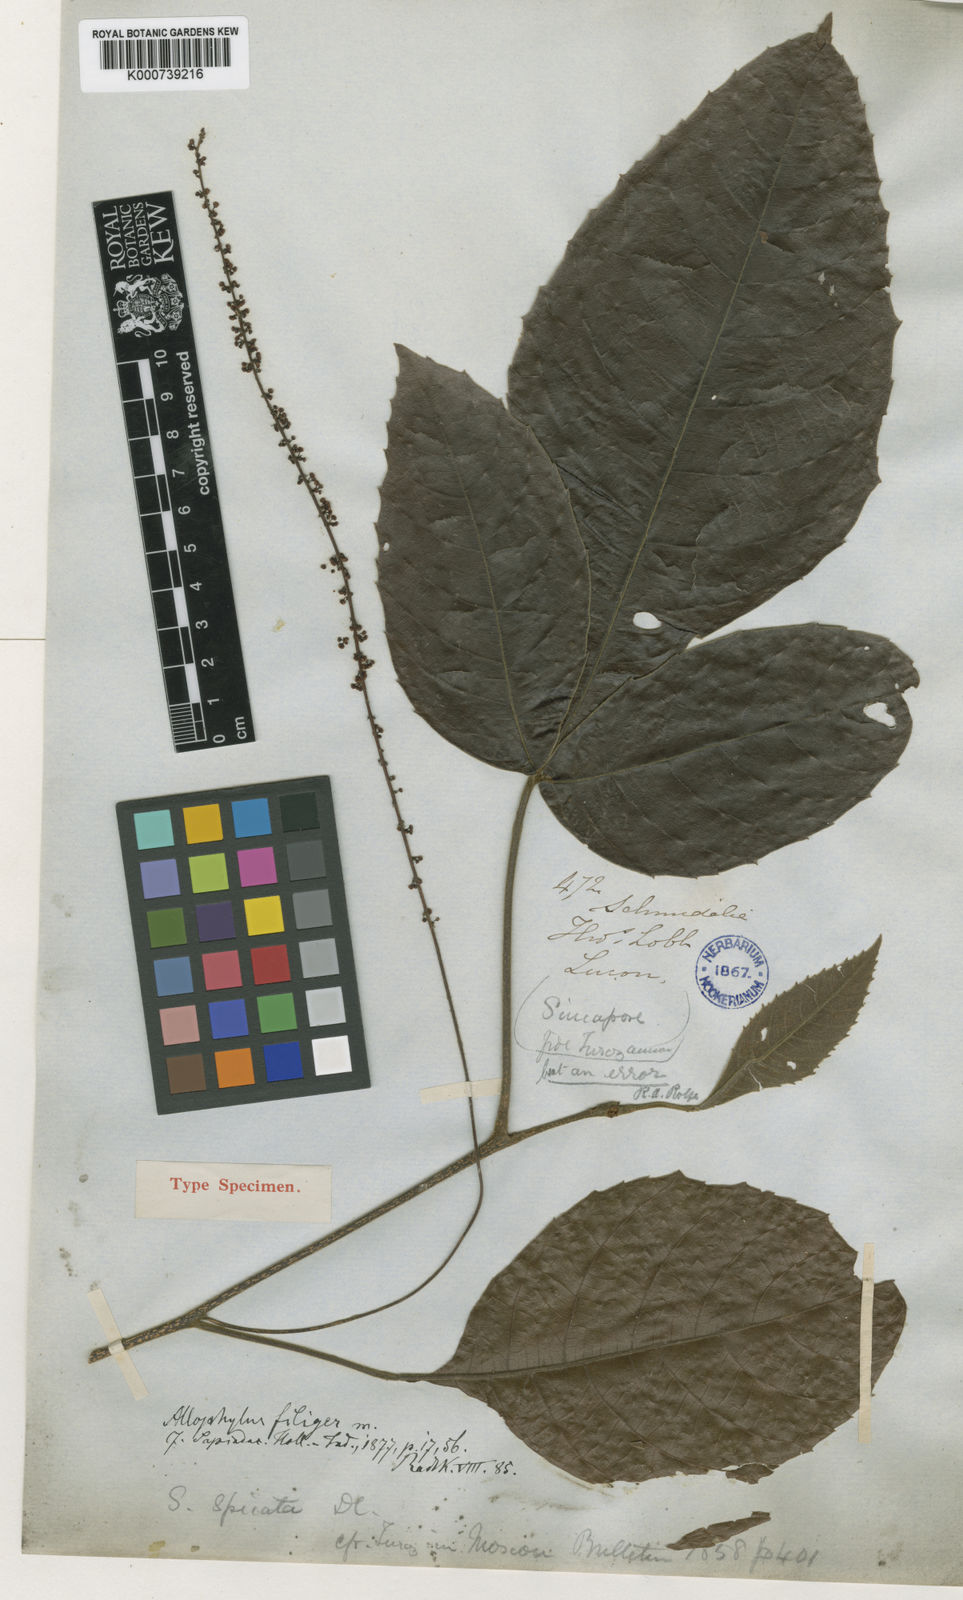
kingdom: Plantae
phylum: Tracheophyta
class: Magnoliopsida
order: Sapindales
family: Sapindaceae
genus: Allophylus
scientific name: Allophylus cobbe
